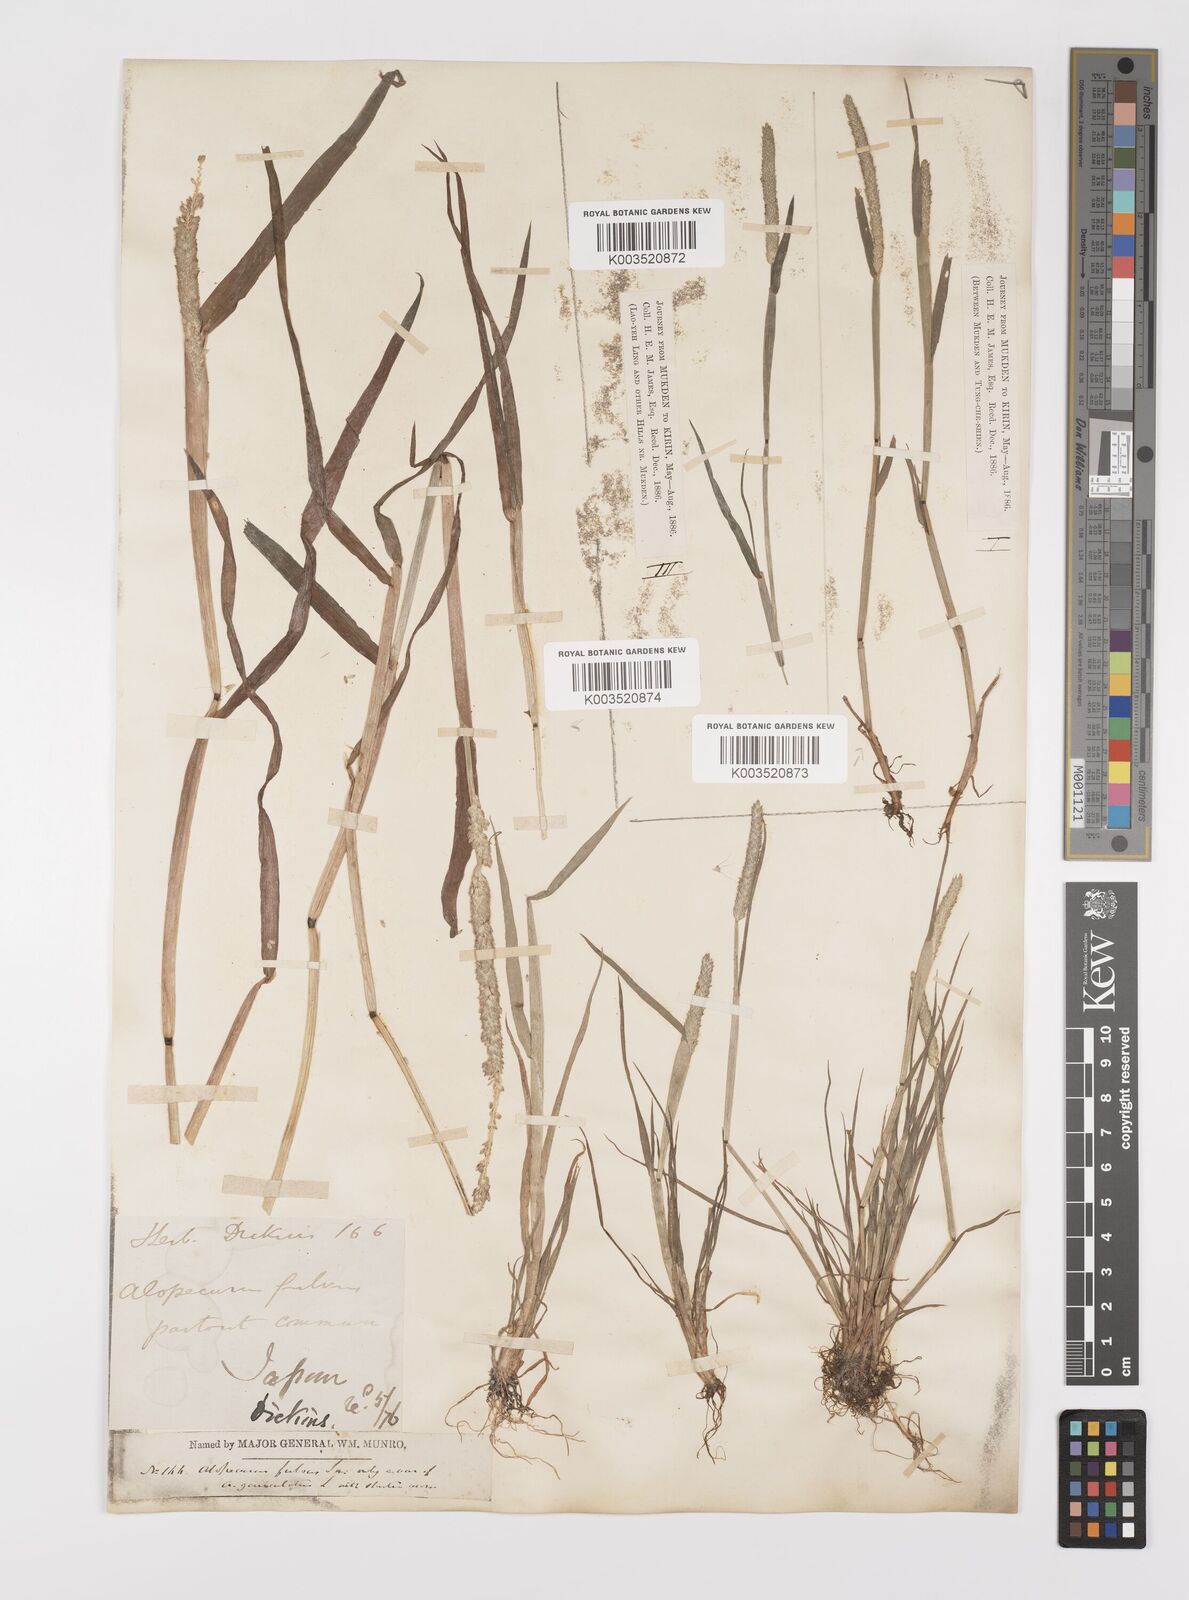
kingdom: Plantae
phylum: Tracheophyta
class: Liliopsida
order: Poales
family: Poaceae
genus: Alopecurus
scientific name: Alopecurus aequalis
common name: Orange foxtail
